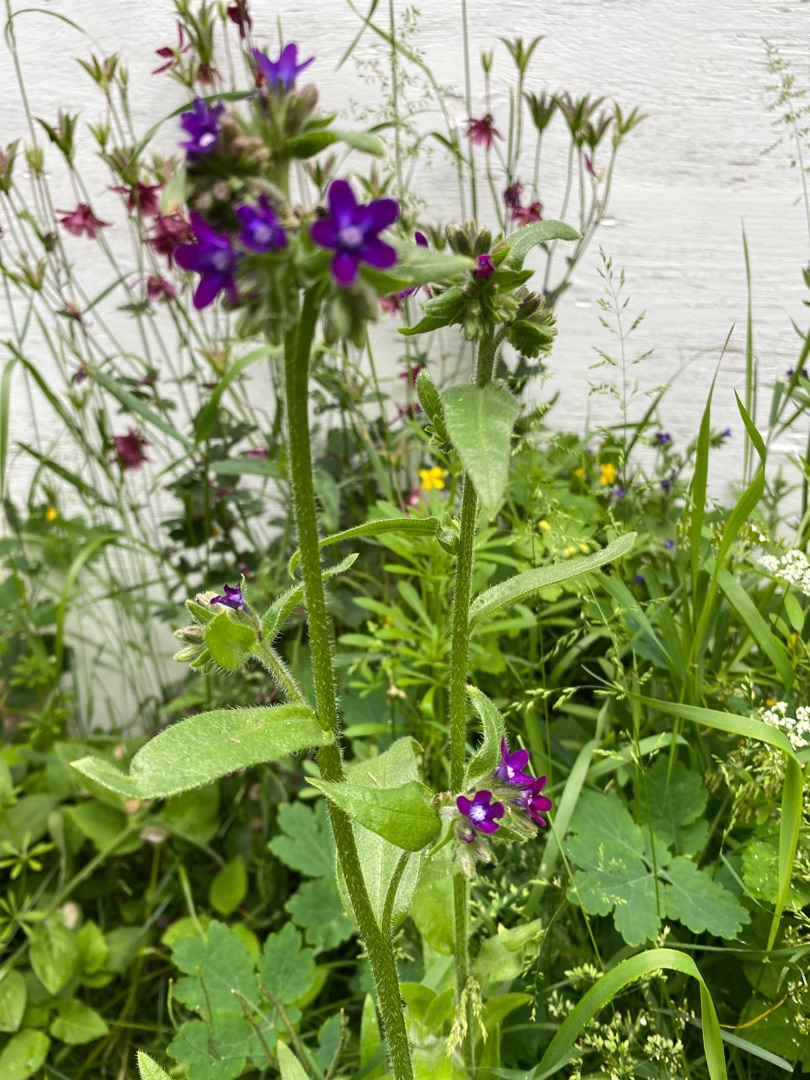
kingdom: Plantae
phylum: Tracheophyta
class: Magnoliopsida
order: Boraginales
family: Boraginaceae
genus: Anchusa
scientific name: Anchusa officinalis
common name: Læge-oksetunge
